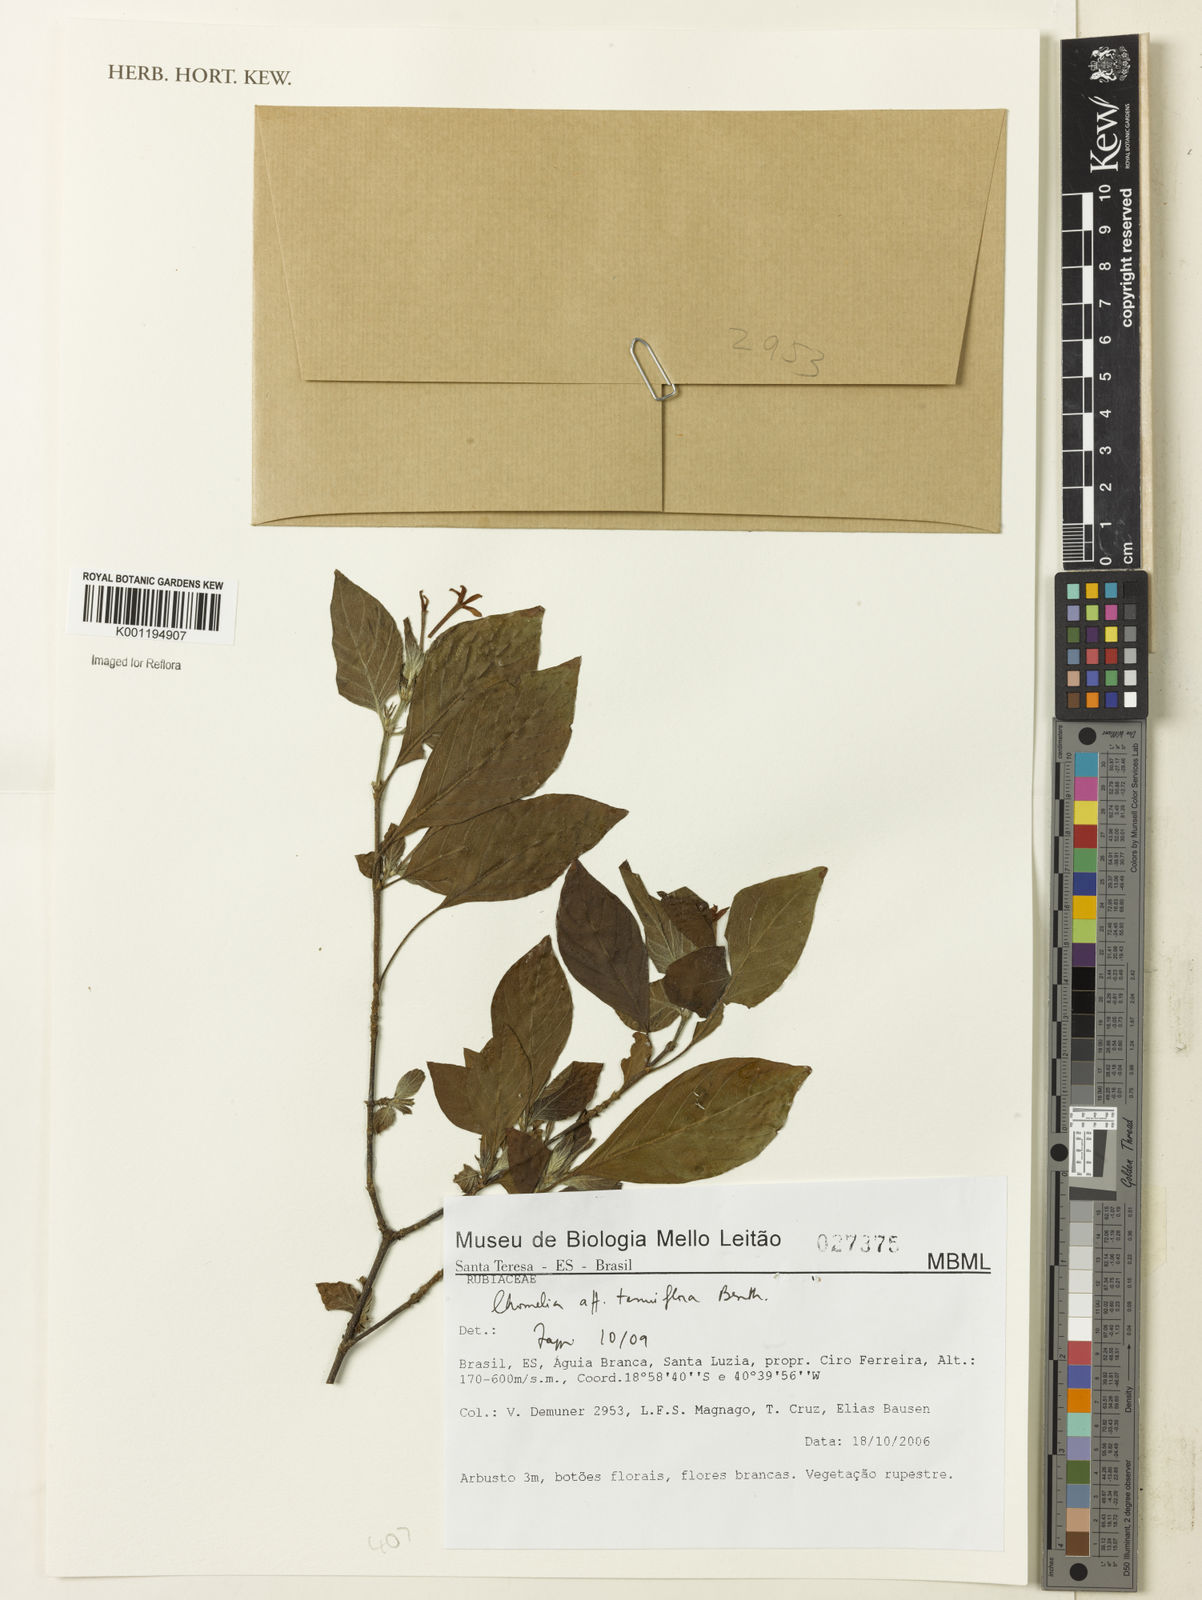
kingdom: Plantae
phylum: Tracheophyta
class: Magnoliopsida
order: Gentianales
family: Rubiaceae
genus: Chomelia
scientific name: Chomelia tenuiflora
